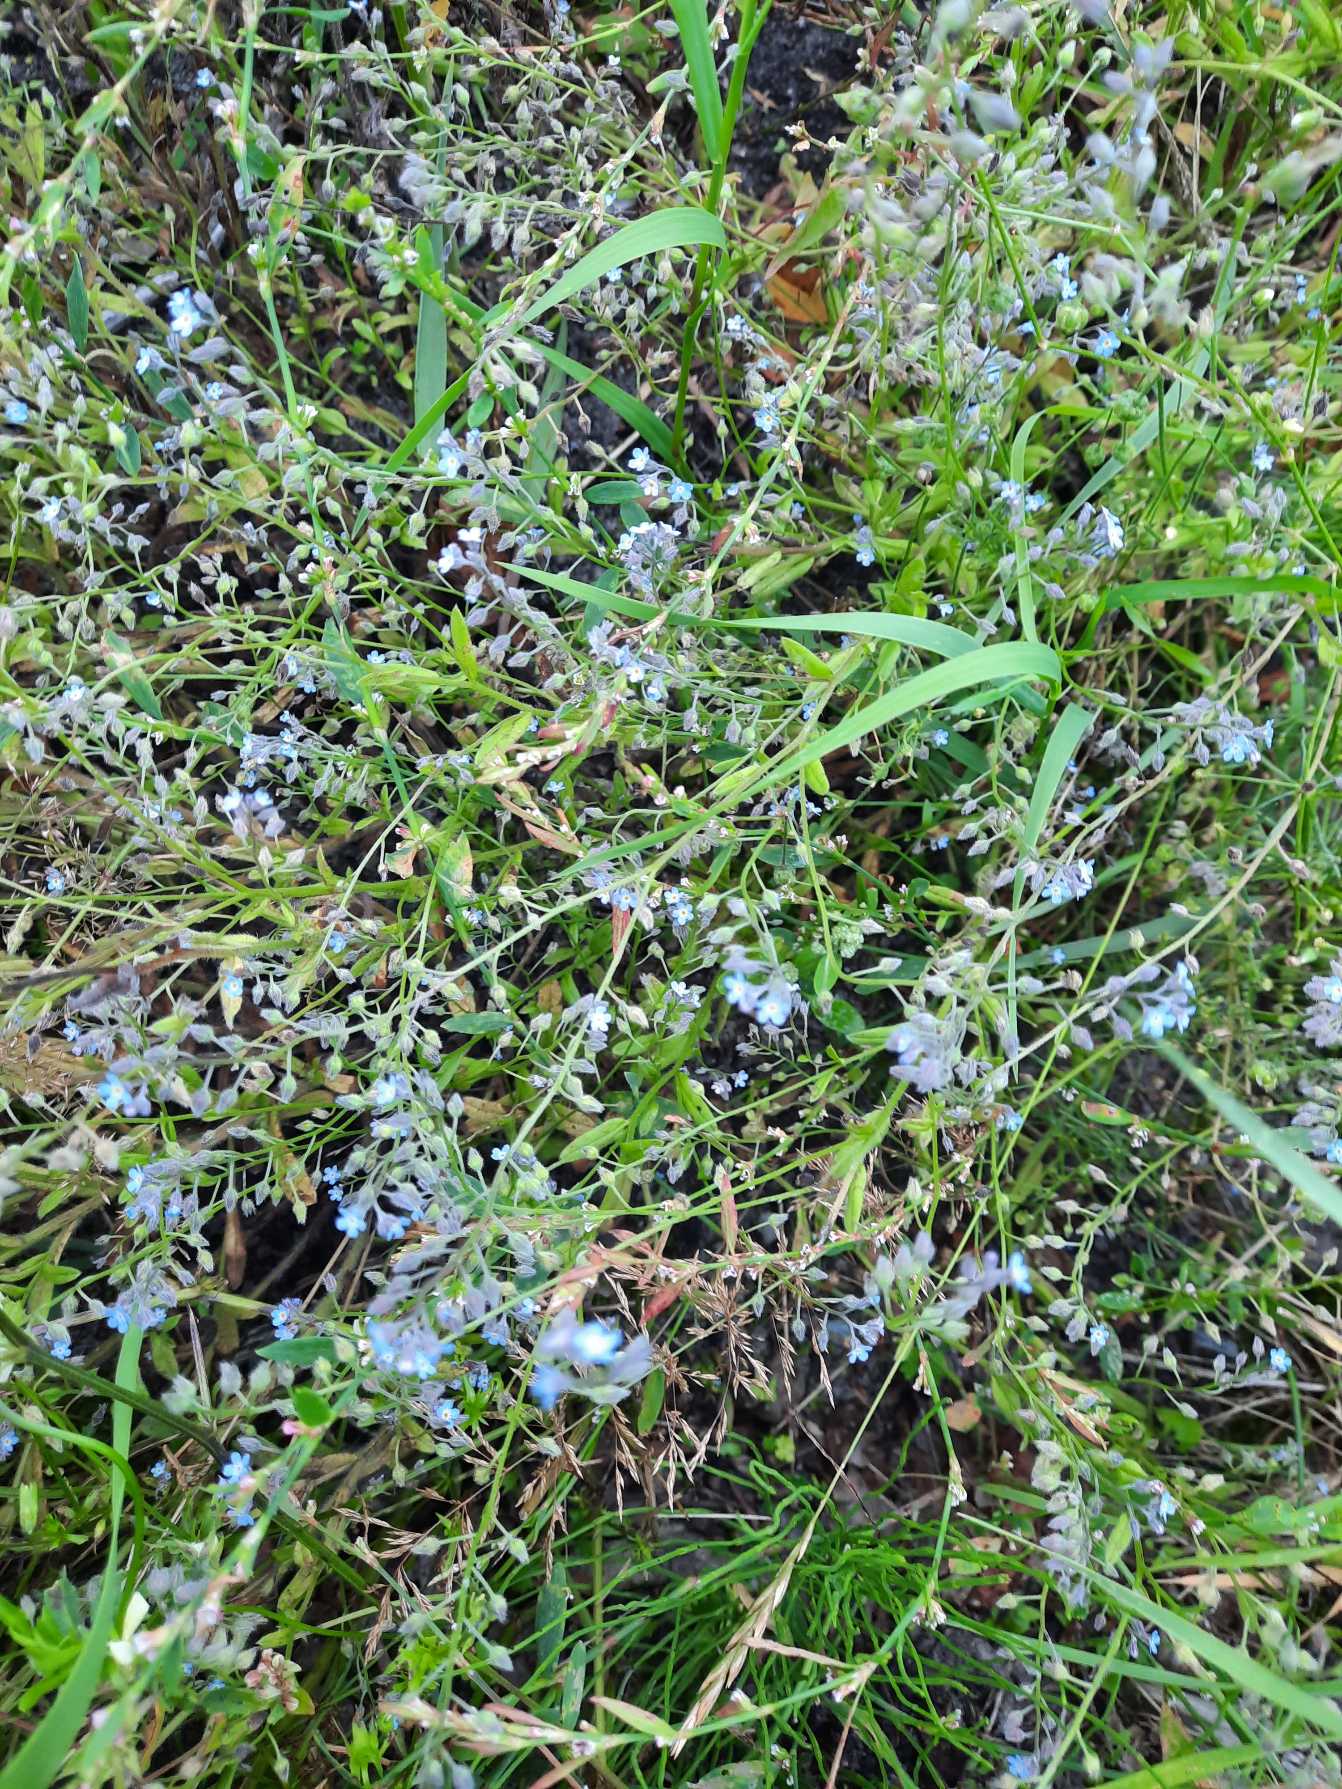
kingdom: Plantae
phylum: Tracheophyta
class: Magnoliopsida
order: Boraginales
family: Boraginaceae
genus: Myosotis
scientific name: Myosotis arvensis
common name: Mark-forglemmigej
